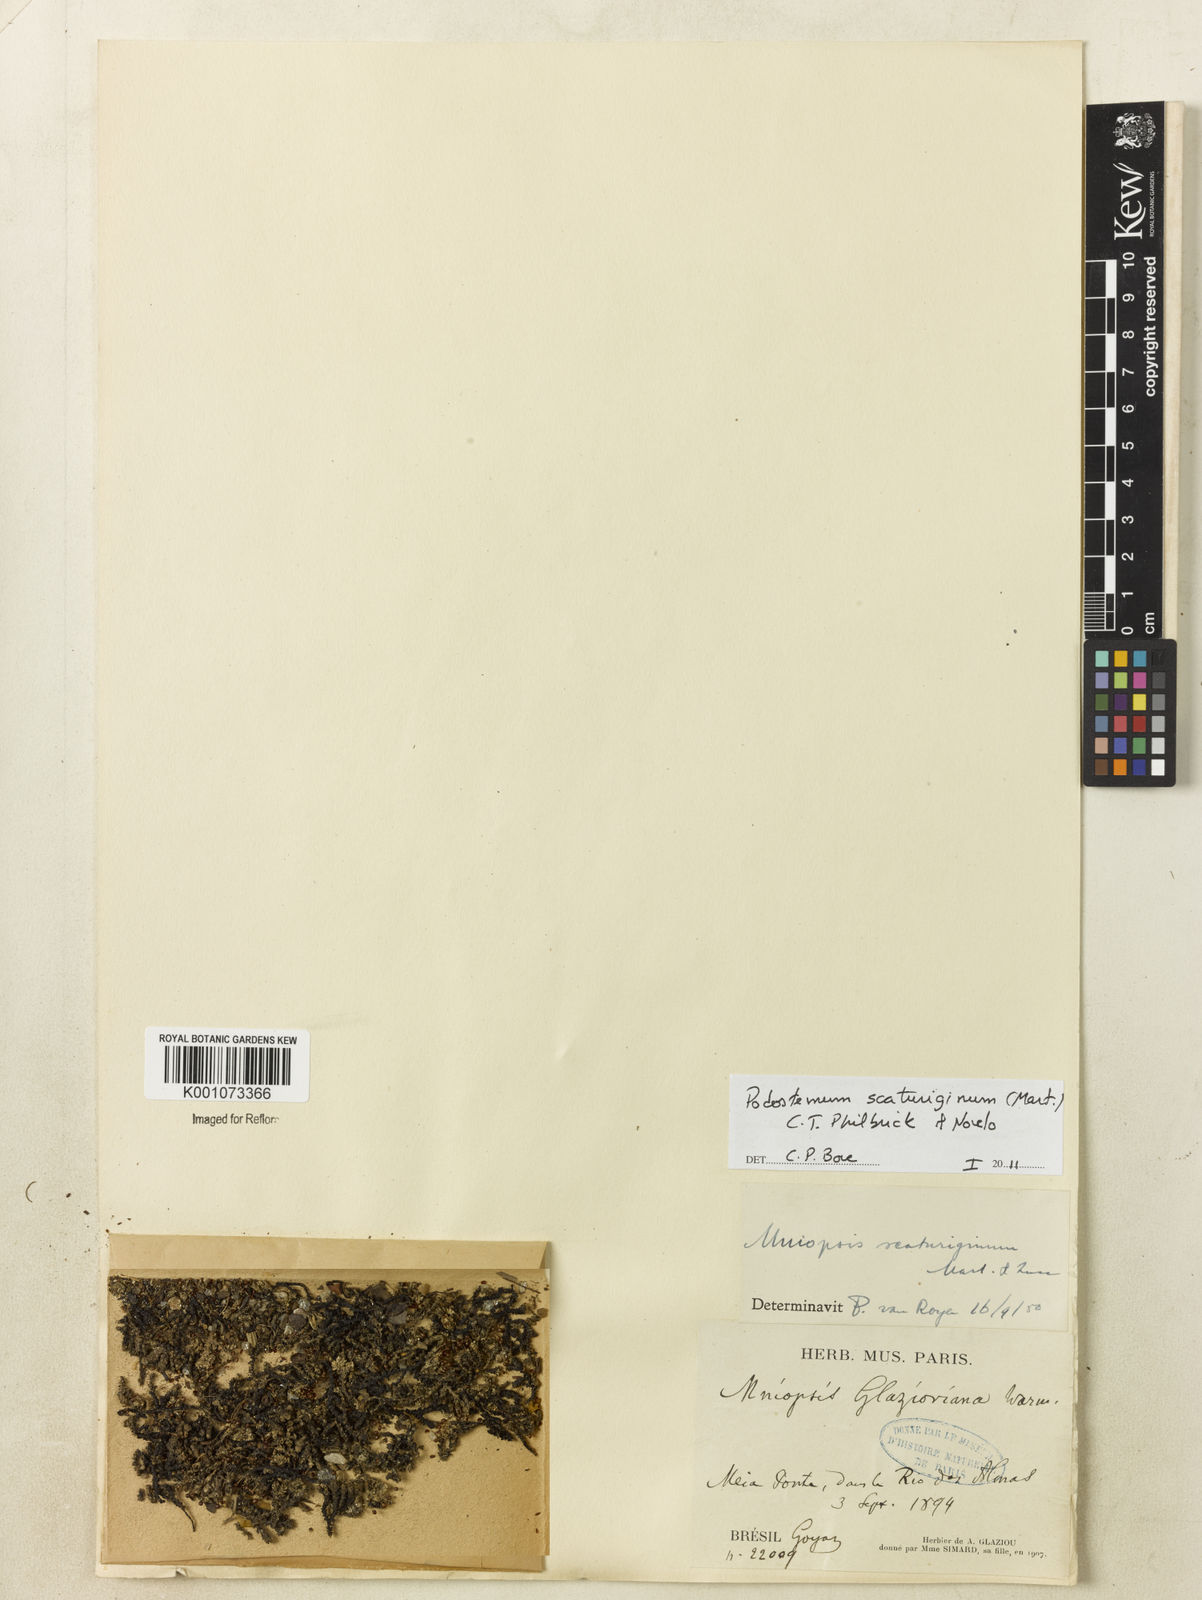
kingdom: Plantae
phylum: Tracheophyta
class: Magnoliopsida
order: Malpighiales
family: Podostemaceae
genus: Podostemum
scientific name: Podostemum scaturiginum
